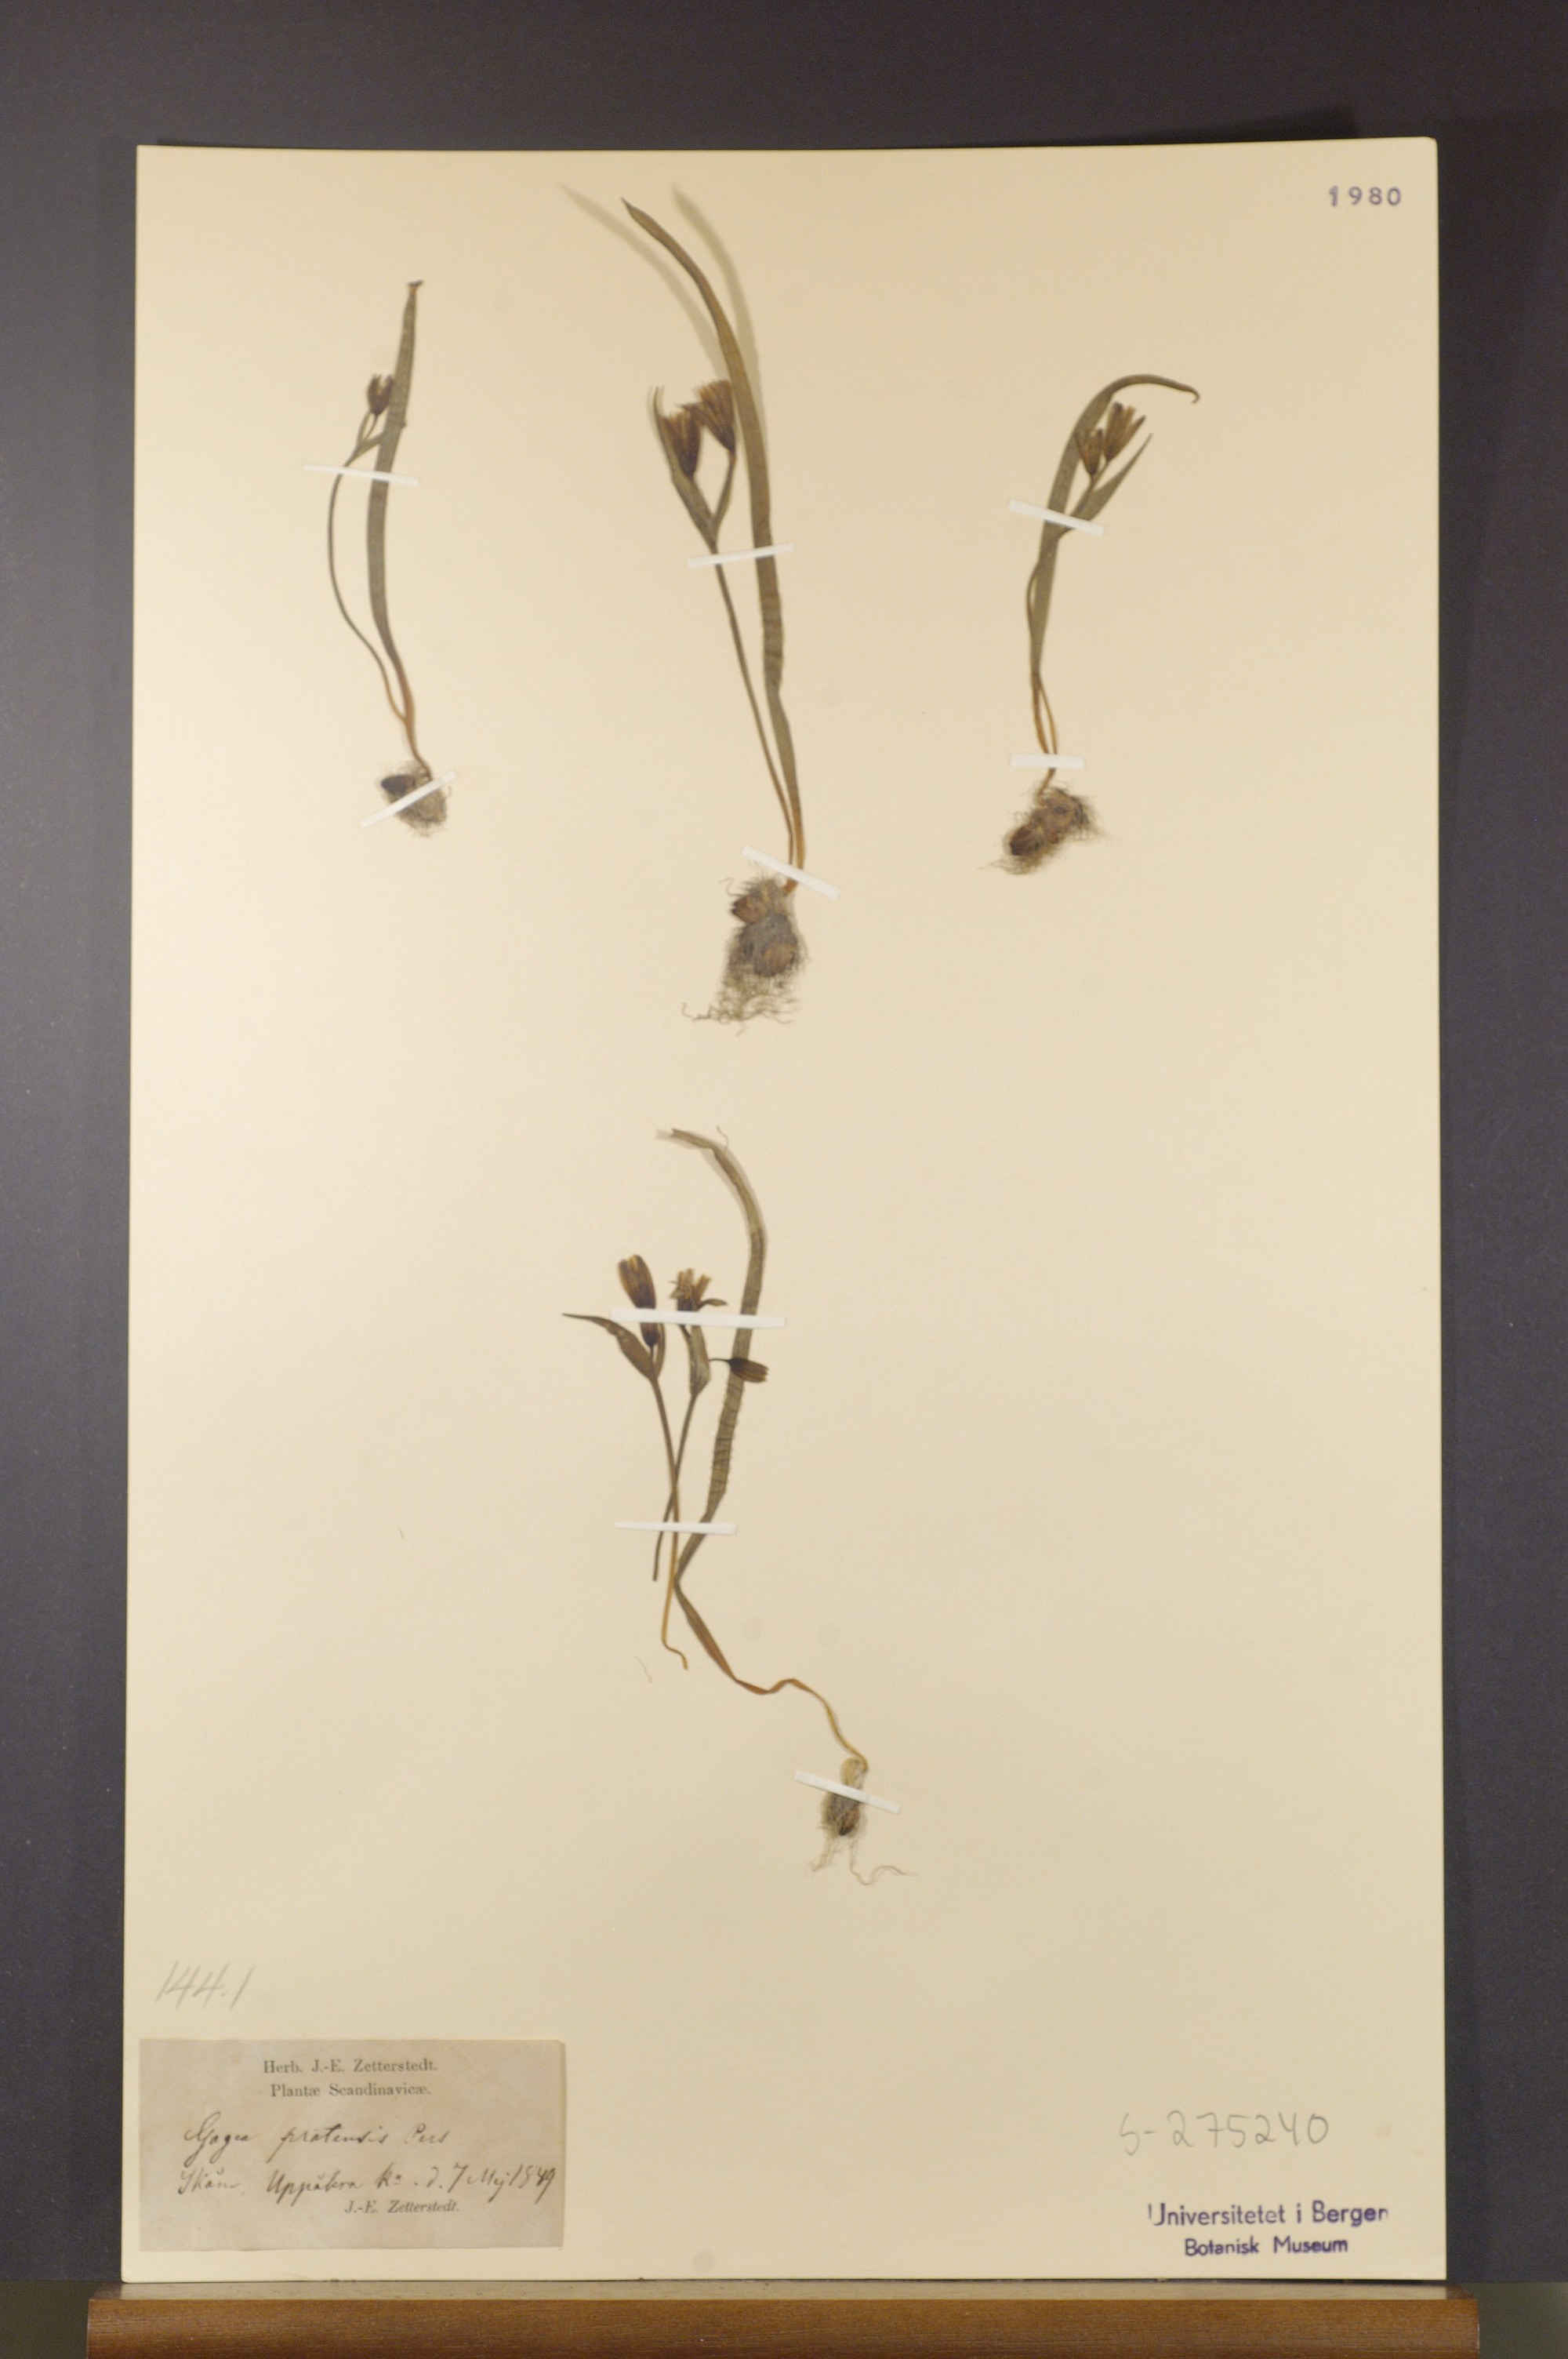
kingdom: Plantae
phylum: Tracheophyta
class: Liliopsida
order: Liliales
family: Liliaceae
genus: Gagea
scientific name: Gagea pratensis
